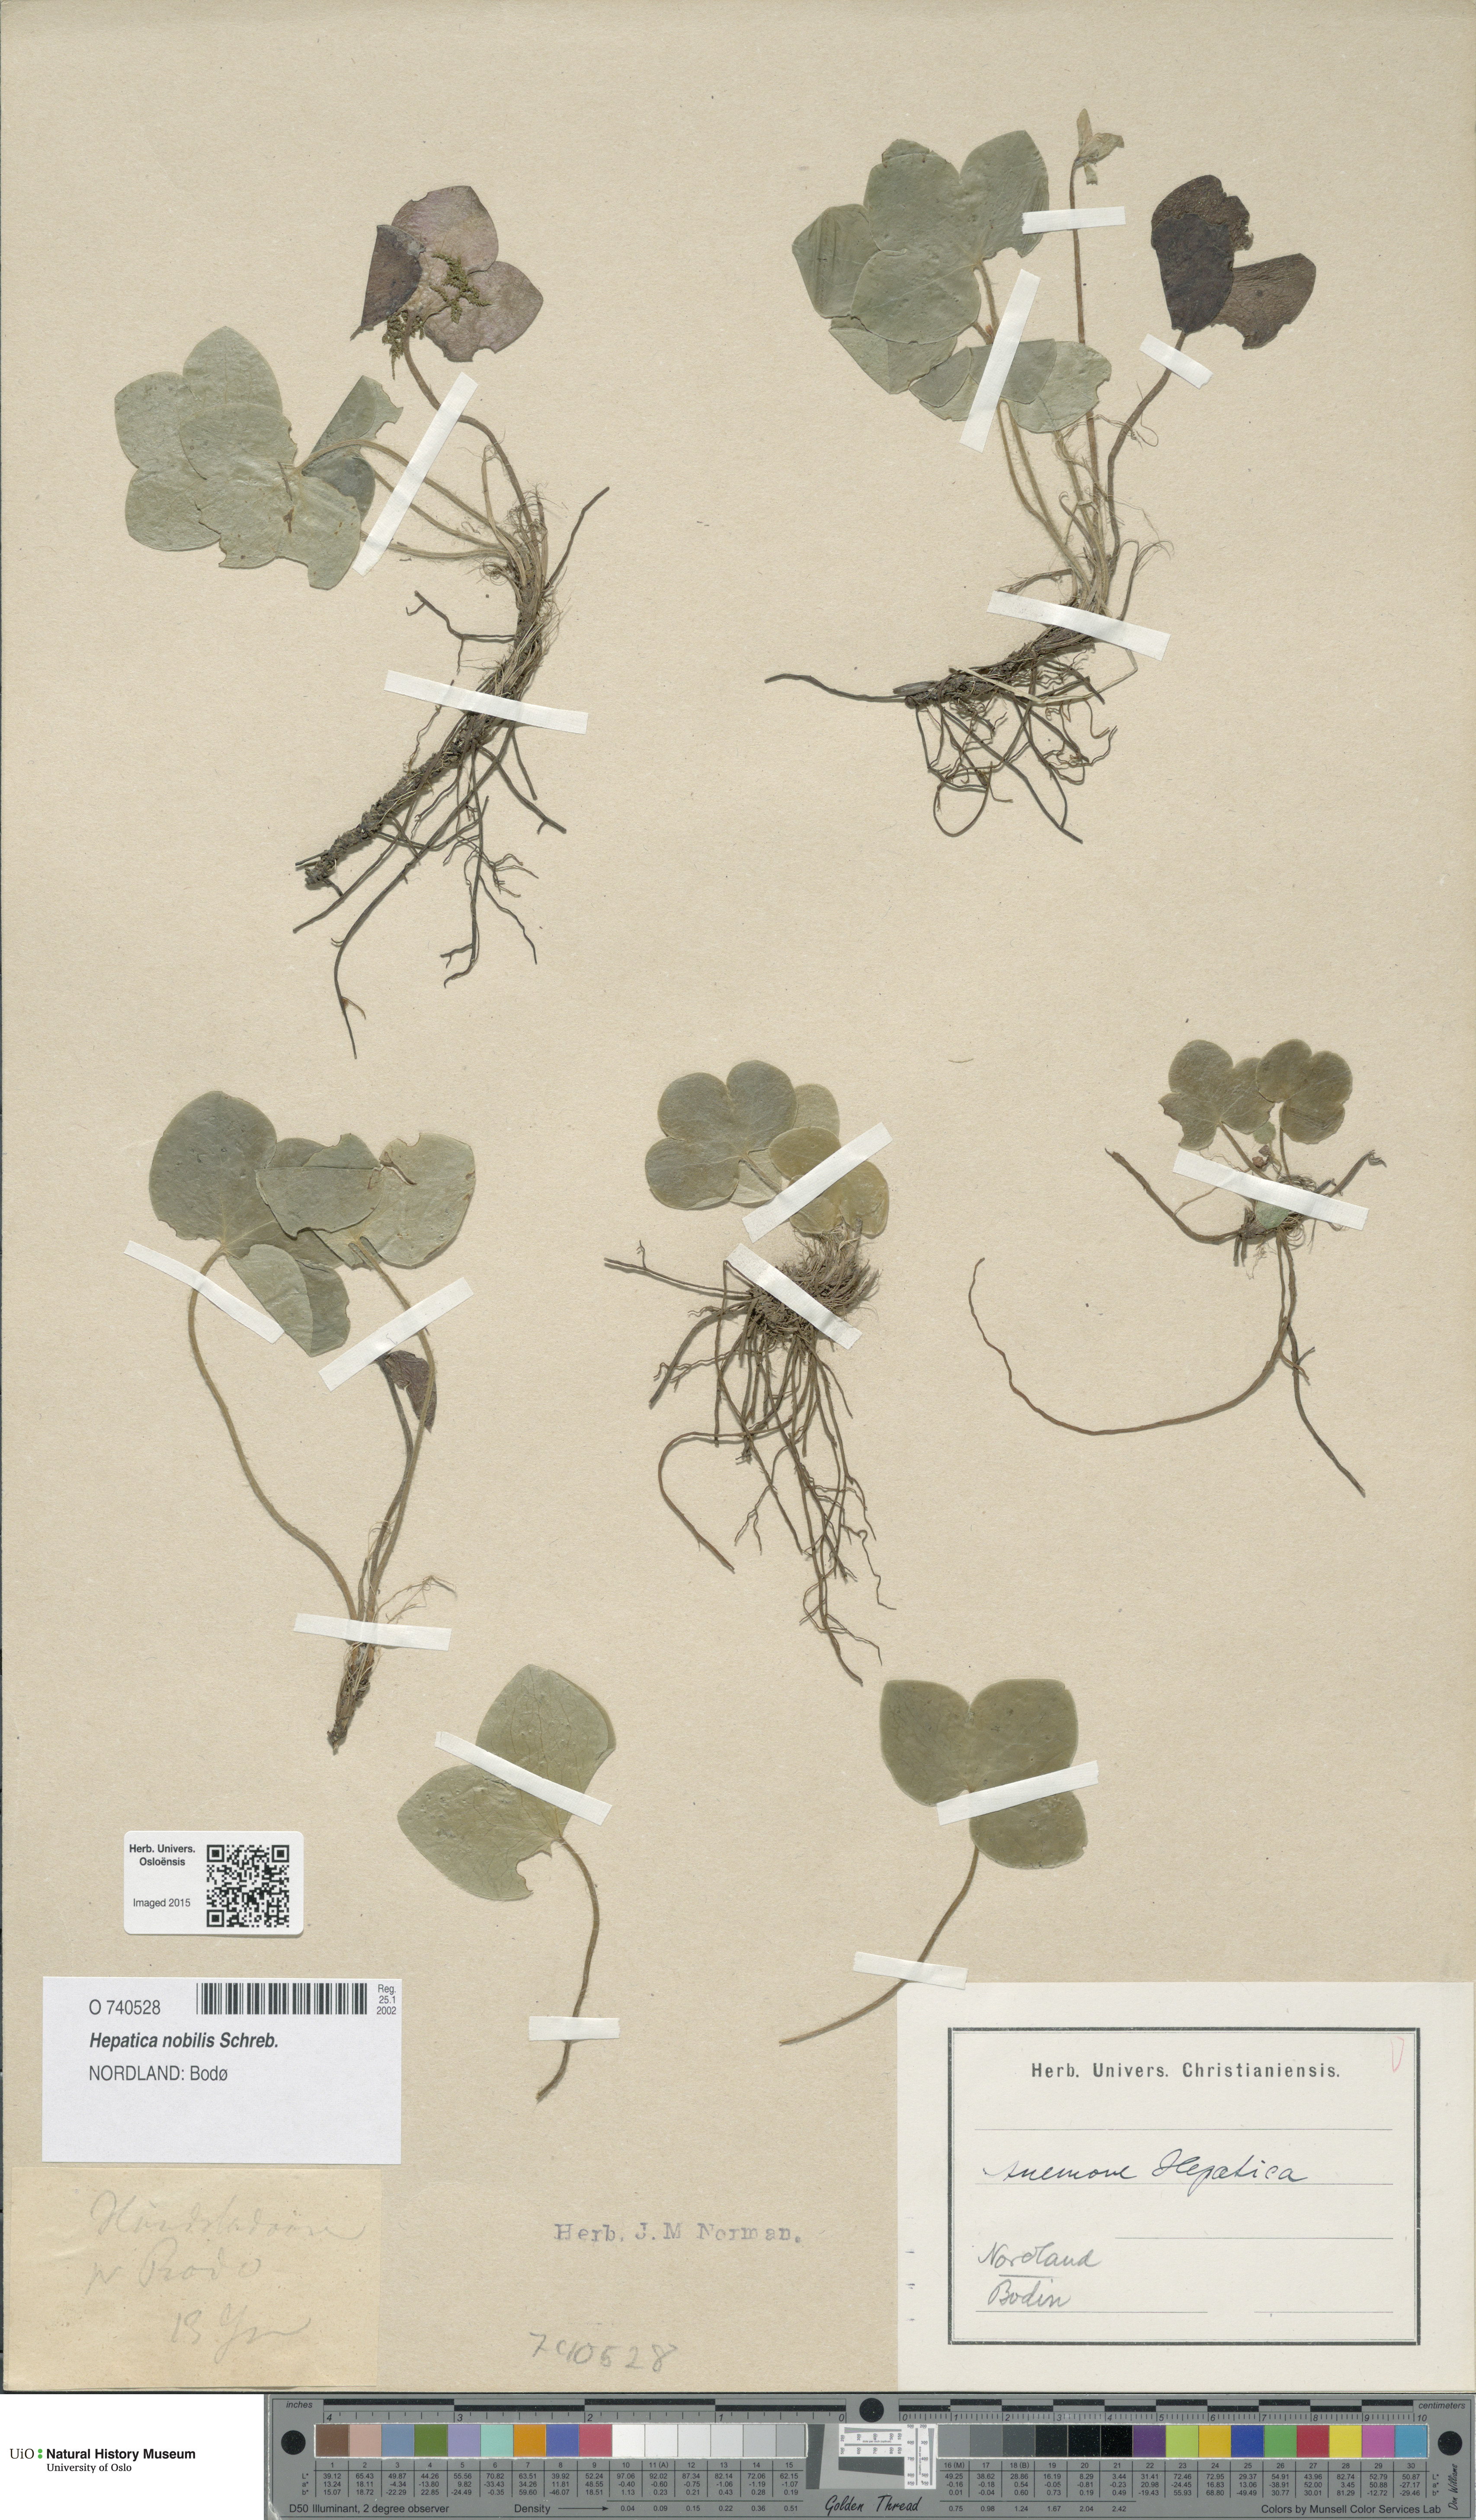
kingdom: Plantae
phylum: Tracheophyta
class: Magnoliopsida
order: Ranunculales
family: Ranunculaceae
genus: Hepatica
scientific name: Hepatica nobilis
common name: Liverleaf
